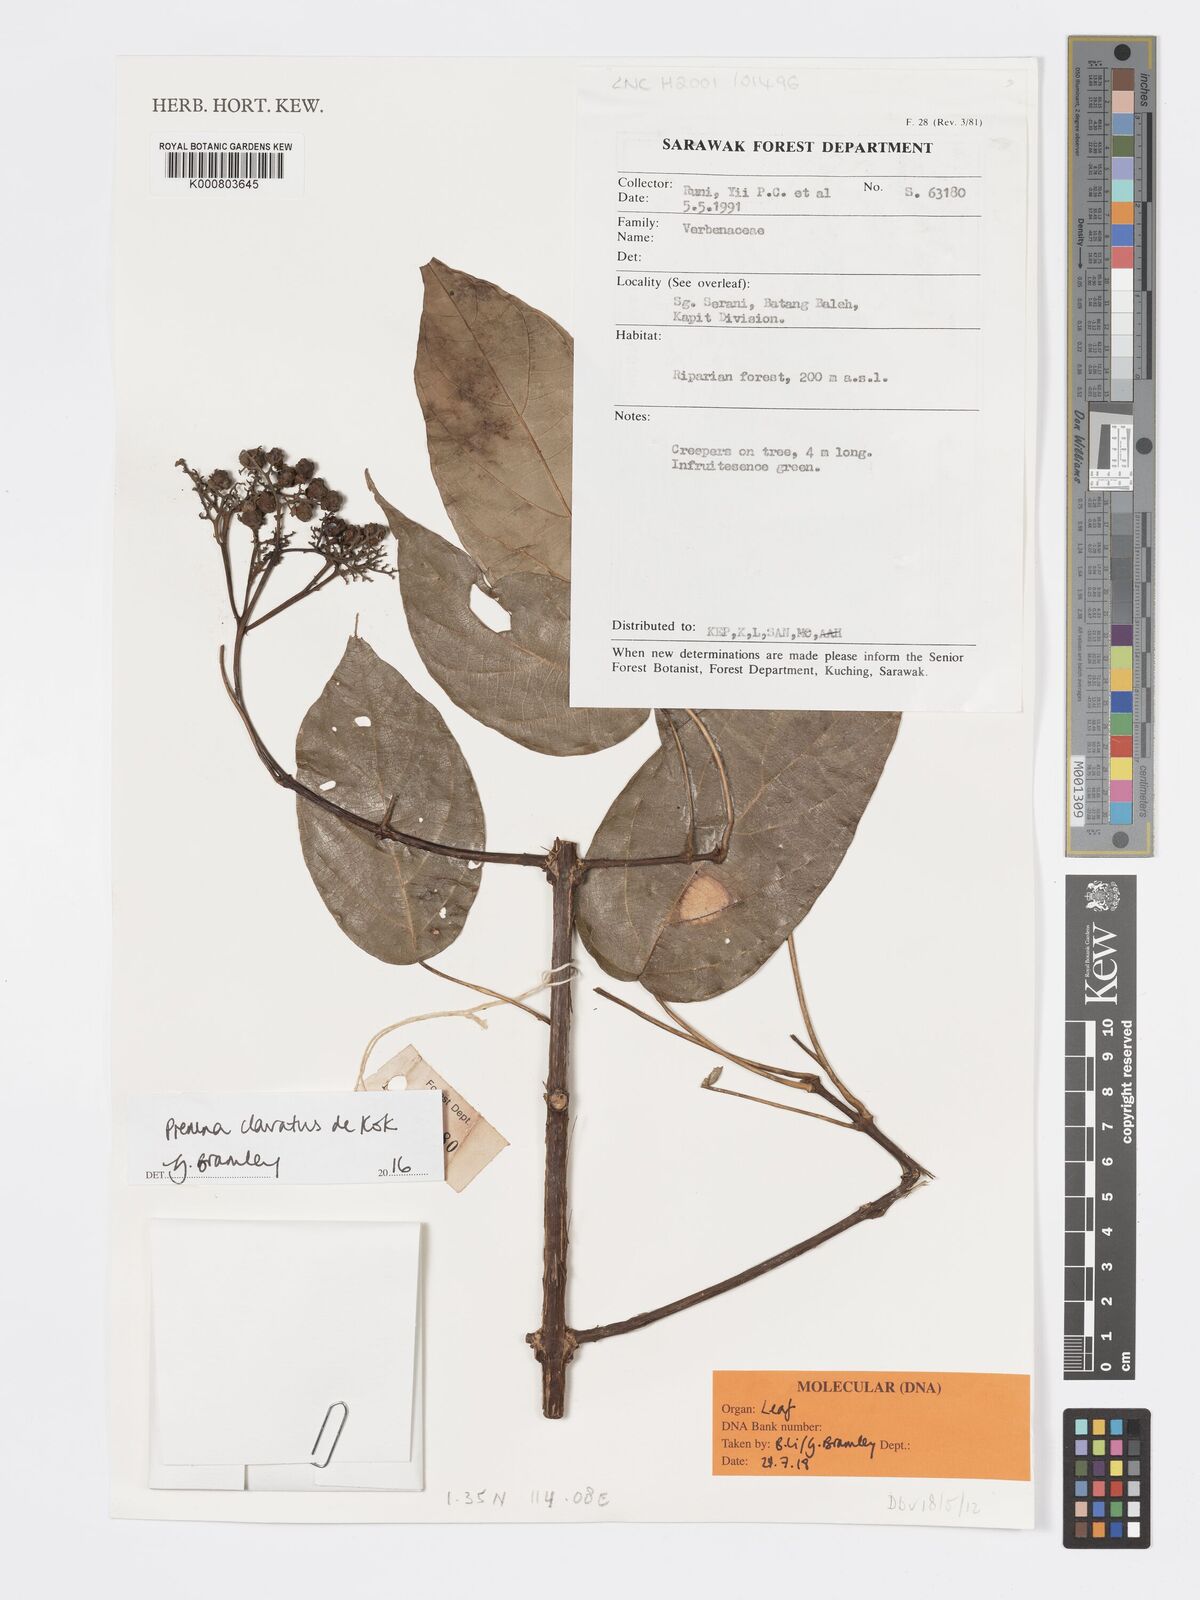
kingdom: Plantae
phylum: Tracheophyta
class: Magnoliopsida
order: Lamiales
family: Lamiaceae
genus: Premna
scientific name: Premna
